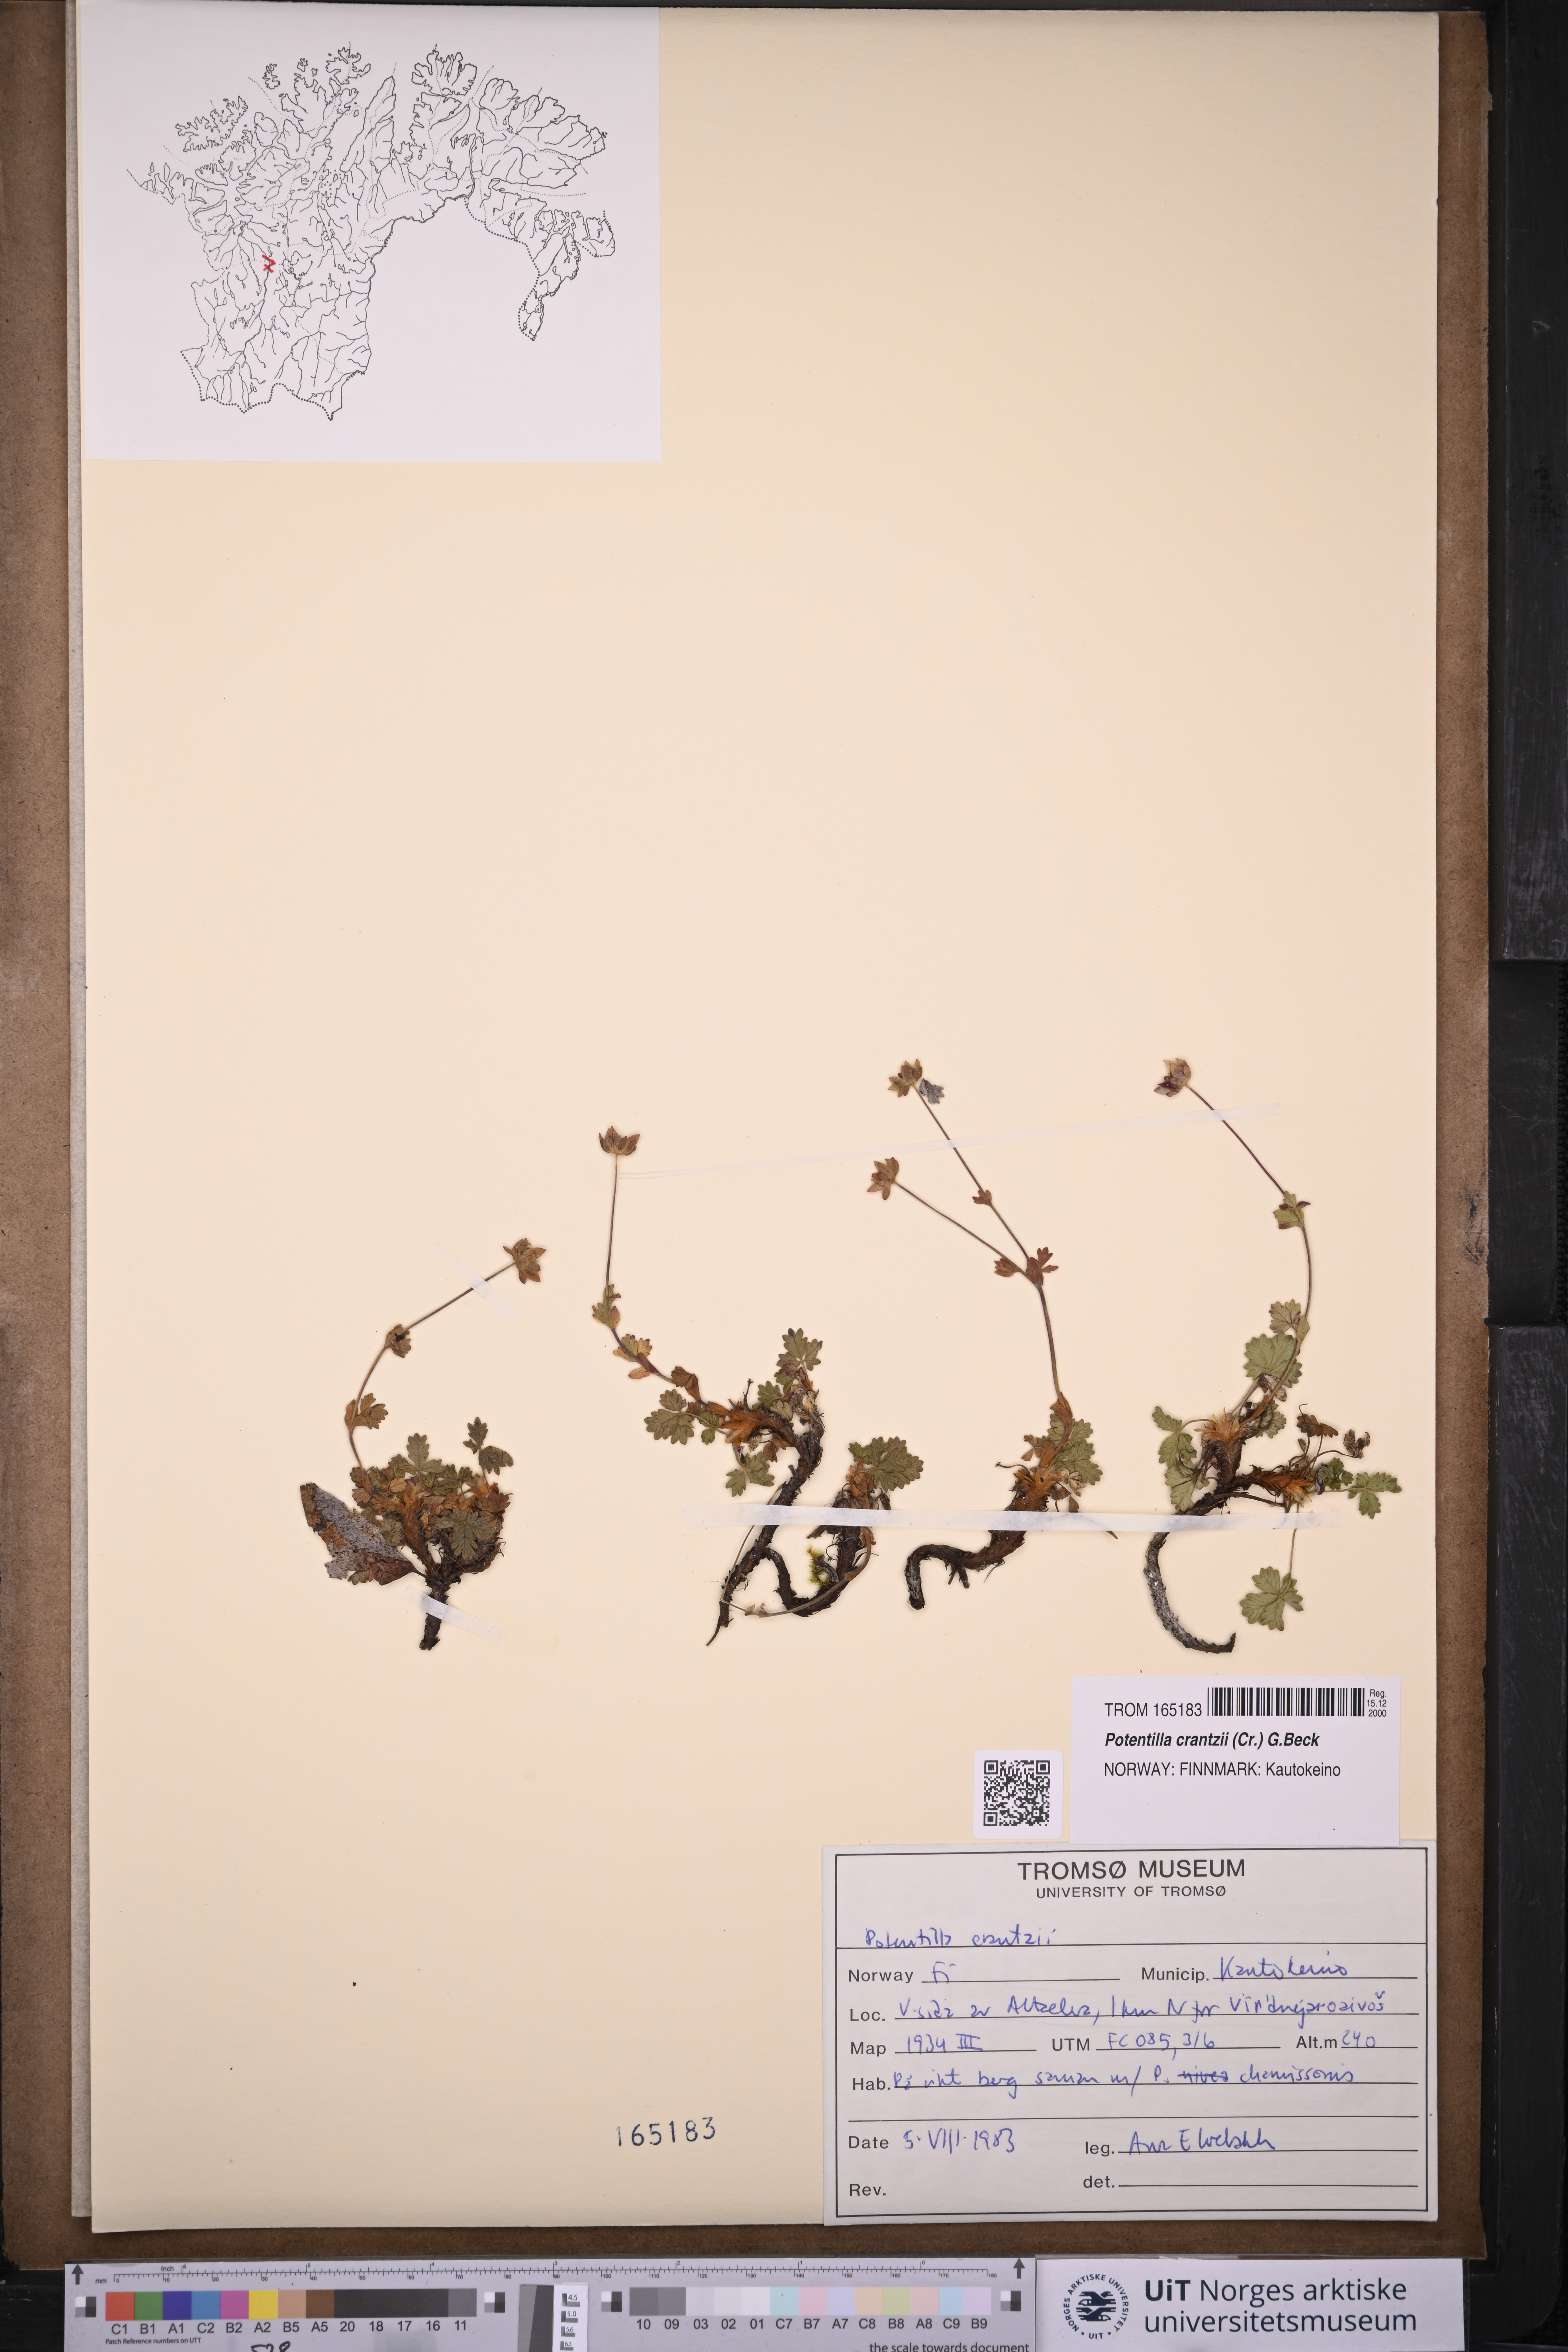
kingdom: Plantae
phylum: Tracheophyta
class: Magnoliopsida
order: Rosales
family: Rosaceae
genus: Potentilla
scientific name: Potentilla crantzii
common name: Alpine cinquefoil
